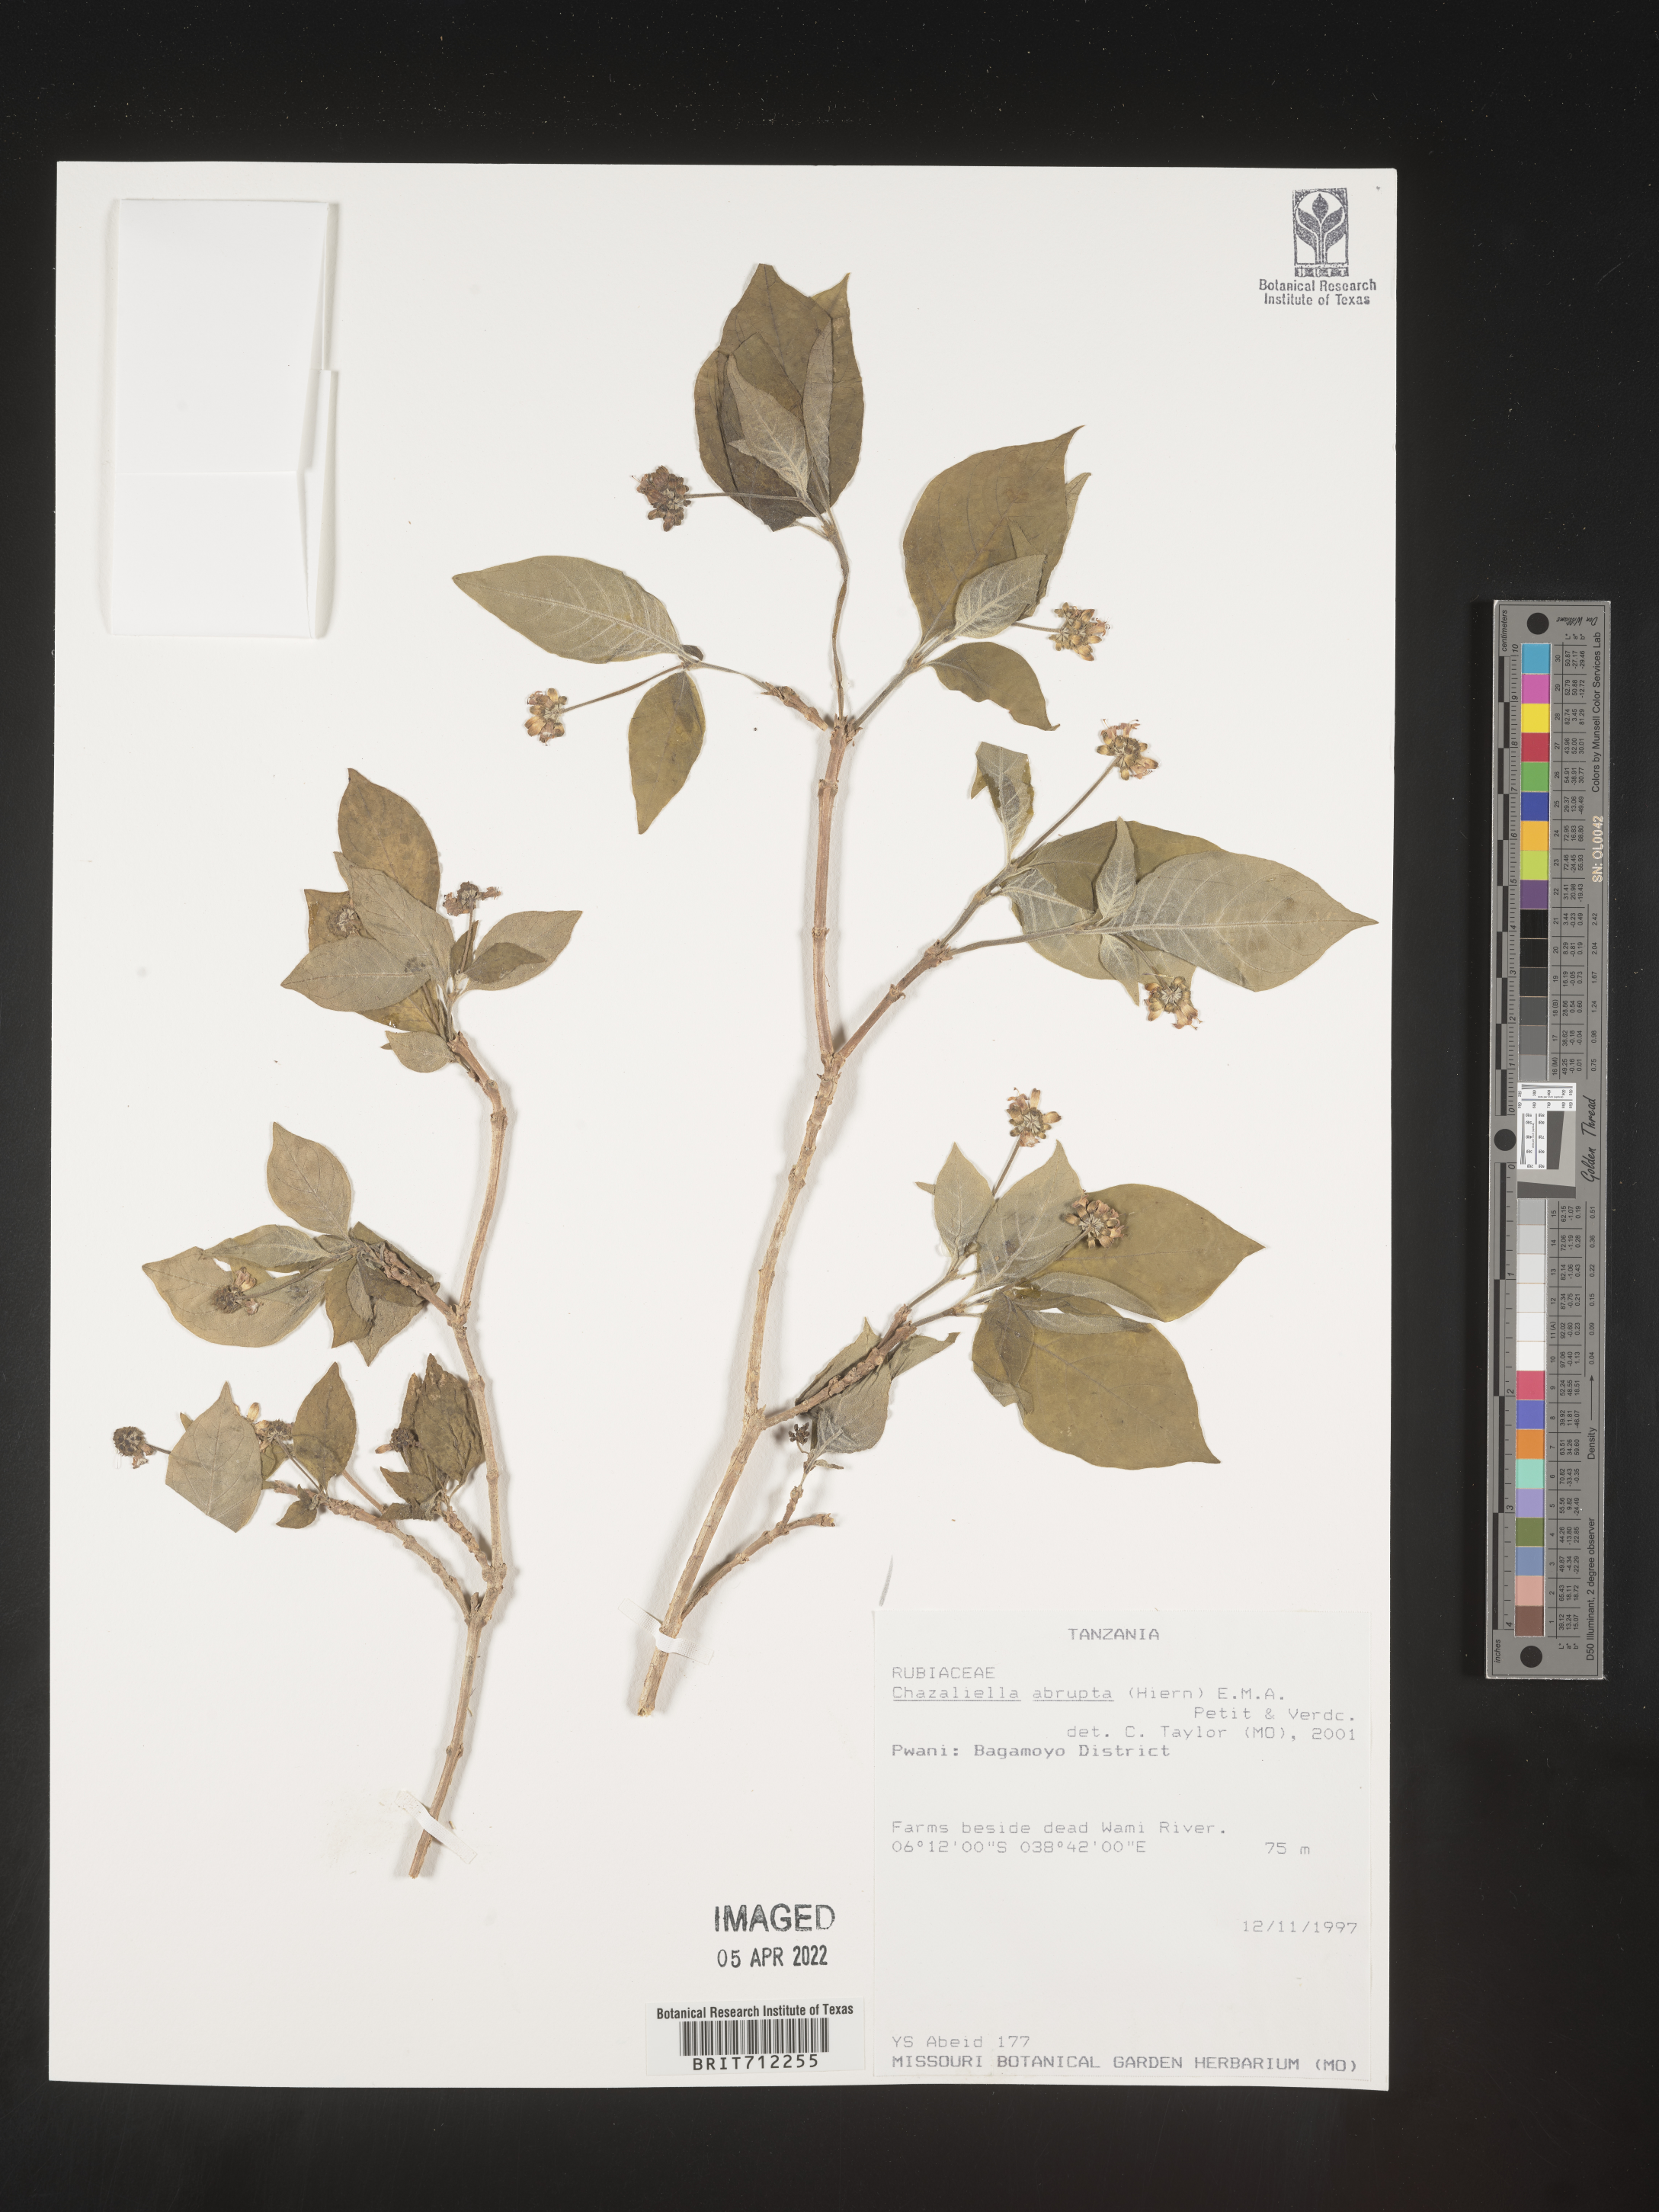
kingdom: Plantae
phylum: Tracheophyta
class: Magnoliopsida
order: Gentianales
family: Rubiaceae
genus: Eumachia
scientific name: Eumachia
